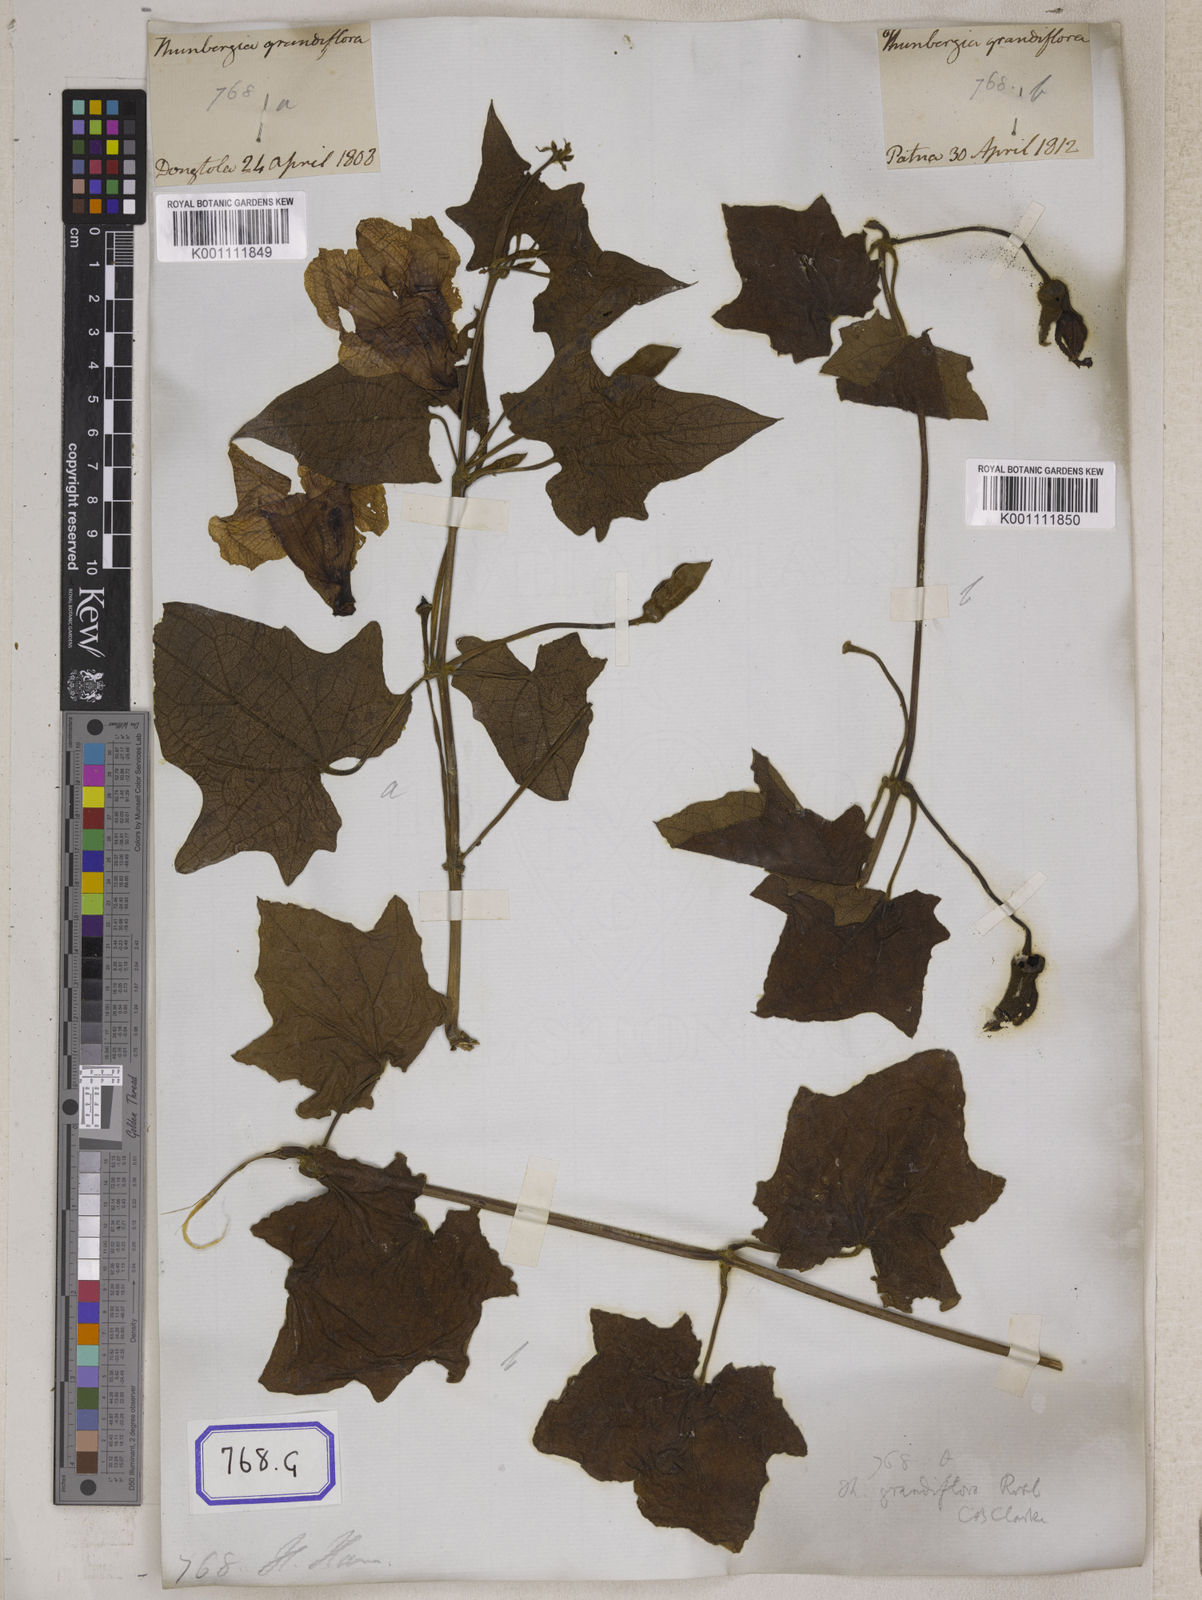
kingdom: Plantae
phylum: Tracheophyta
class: Magnoliopsida
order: Lamiales
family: Acanthaceae
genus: Thunbergia
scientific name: Thunbergia grandiflora
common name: Bengal trumpet
